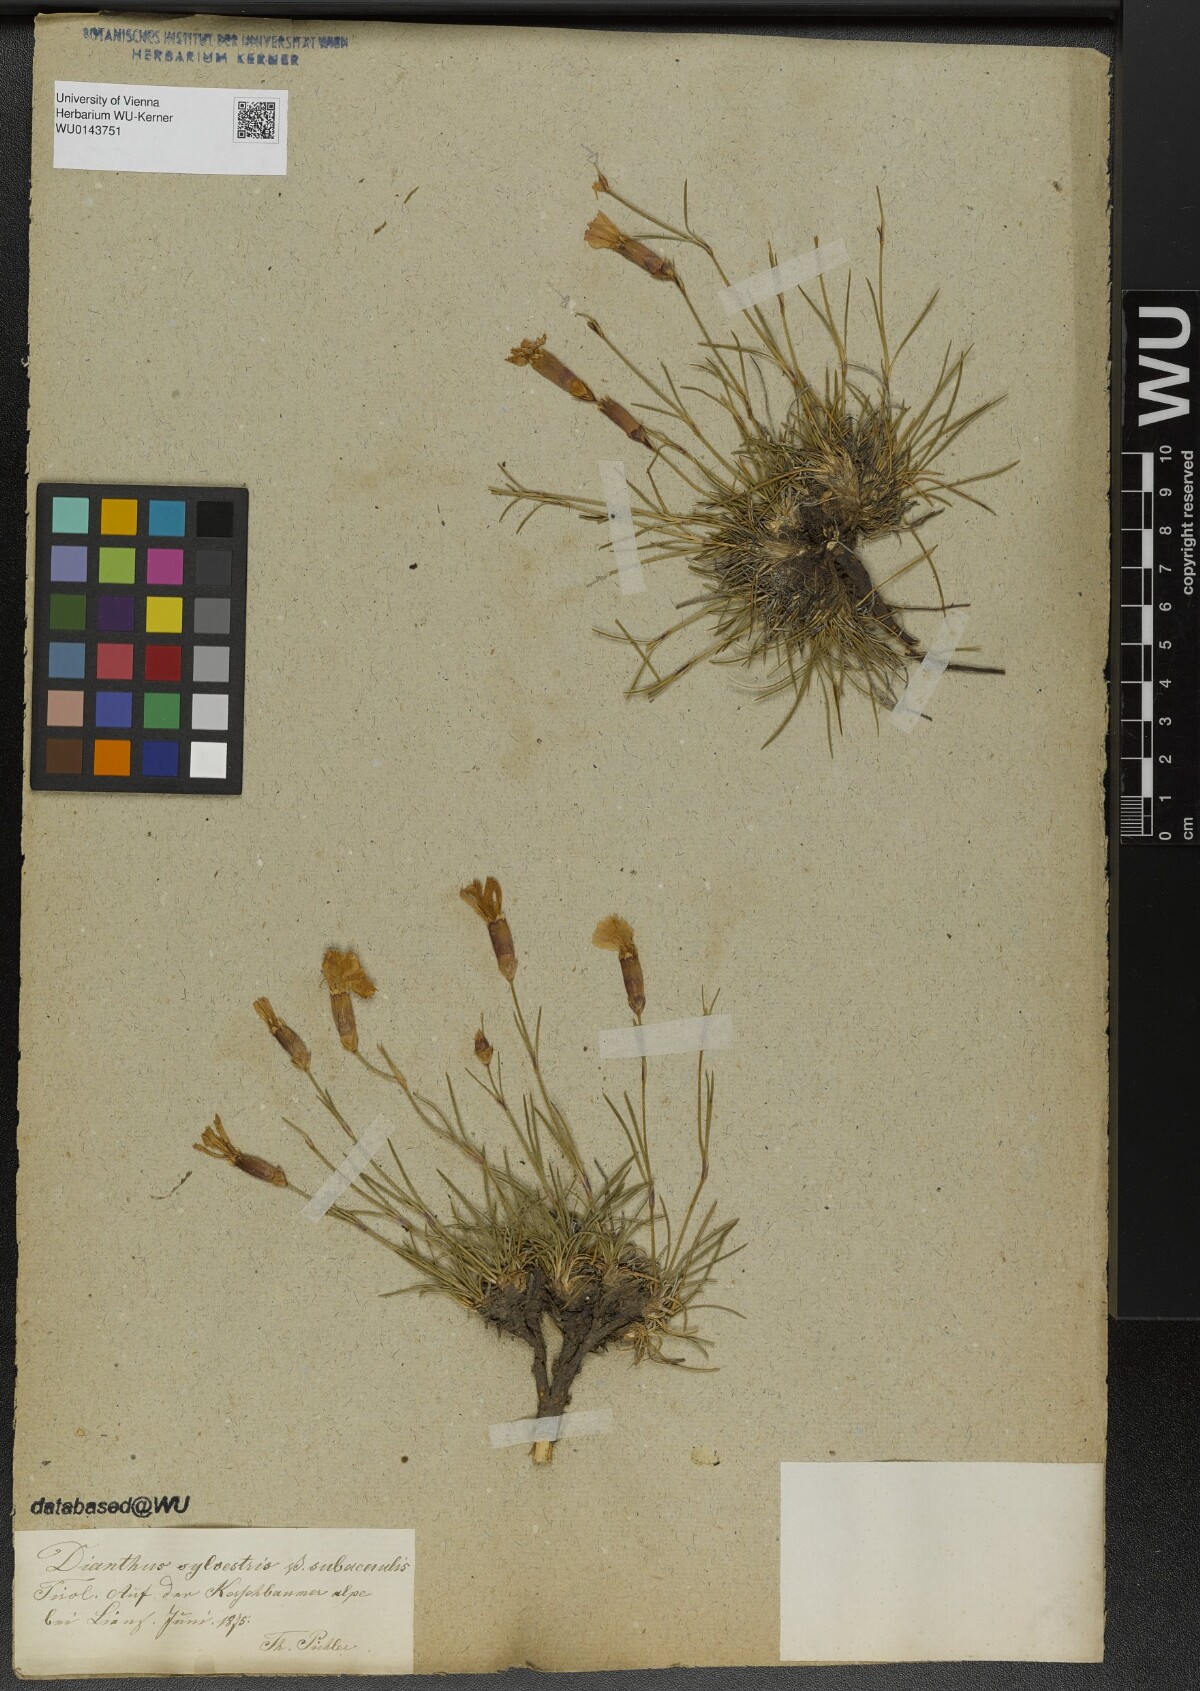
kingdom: Plantae
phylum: Tracheophyta
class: Magnoliopsida
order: Caryophyllales
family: Caryophyllaceae
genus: Dianthus
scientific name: Dianthus sylvestris
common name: Wood pink
